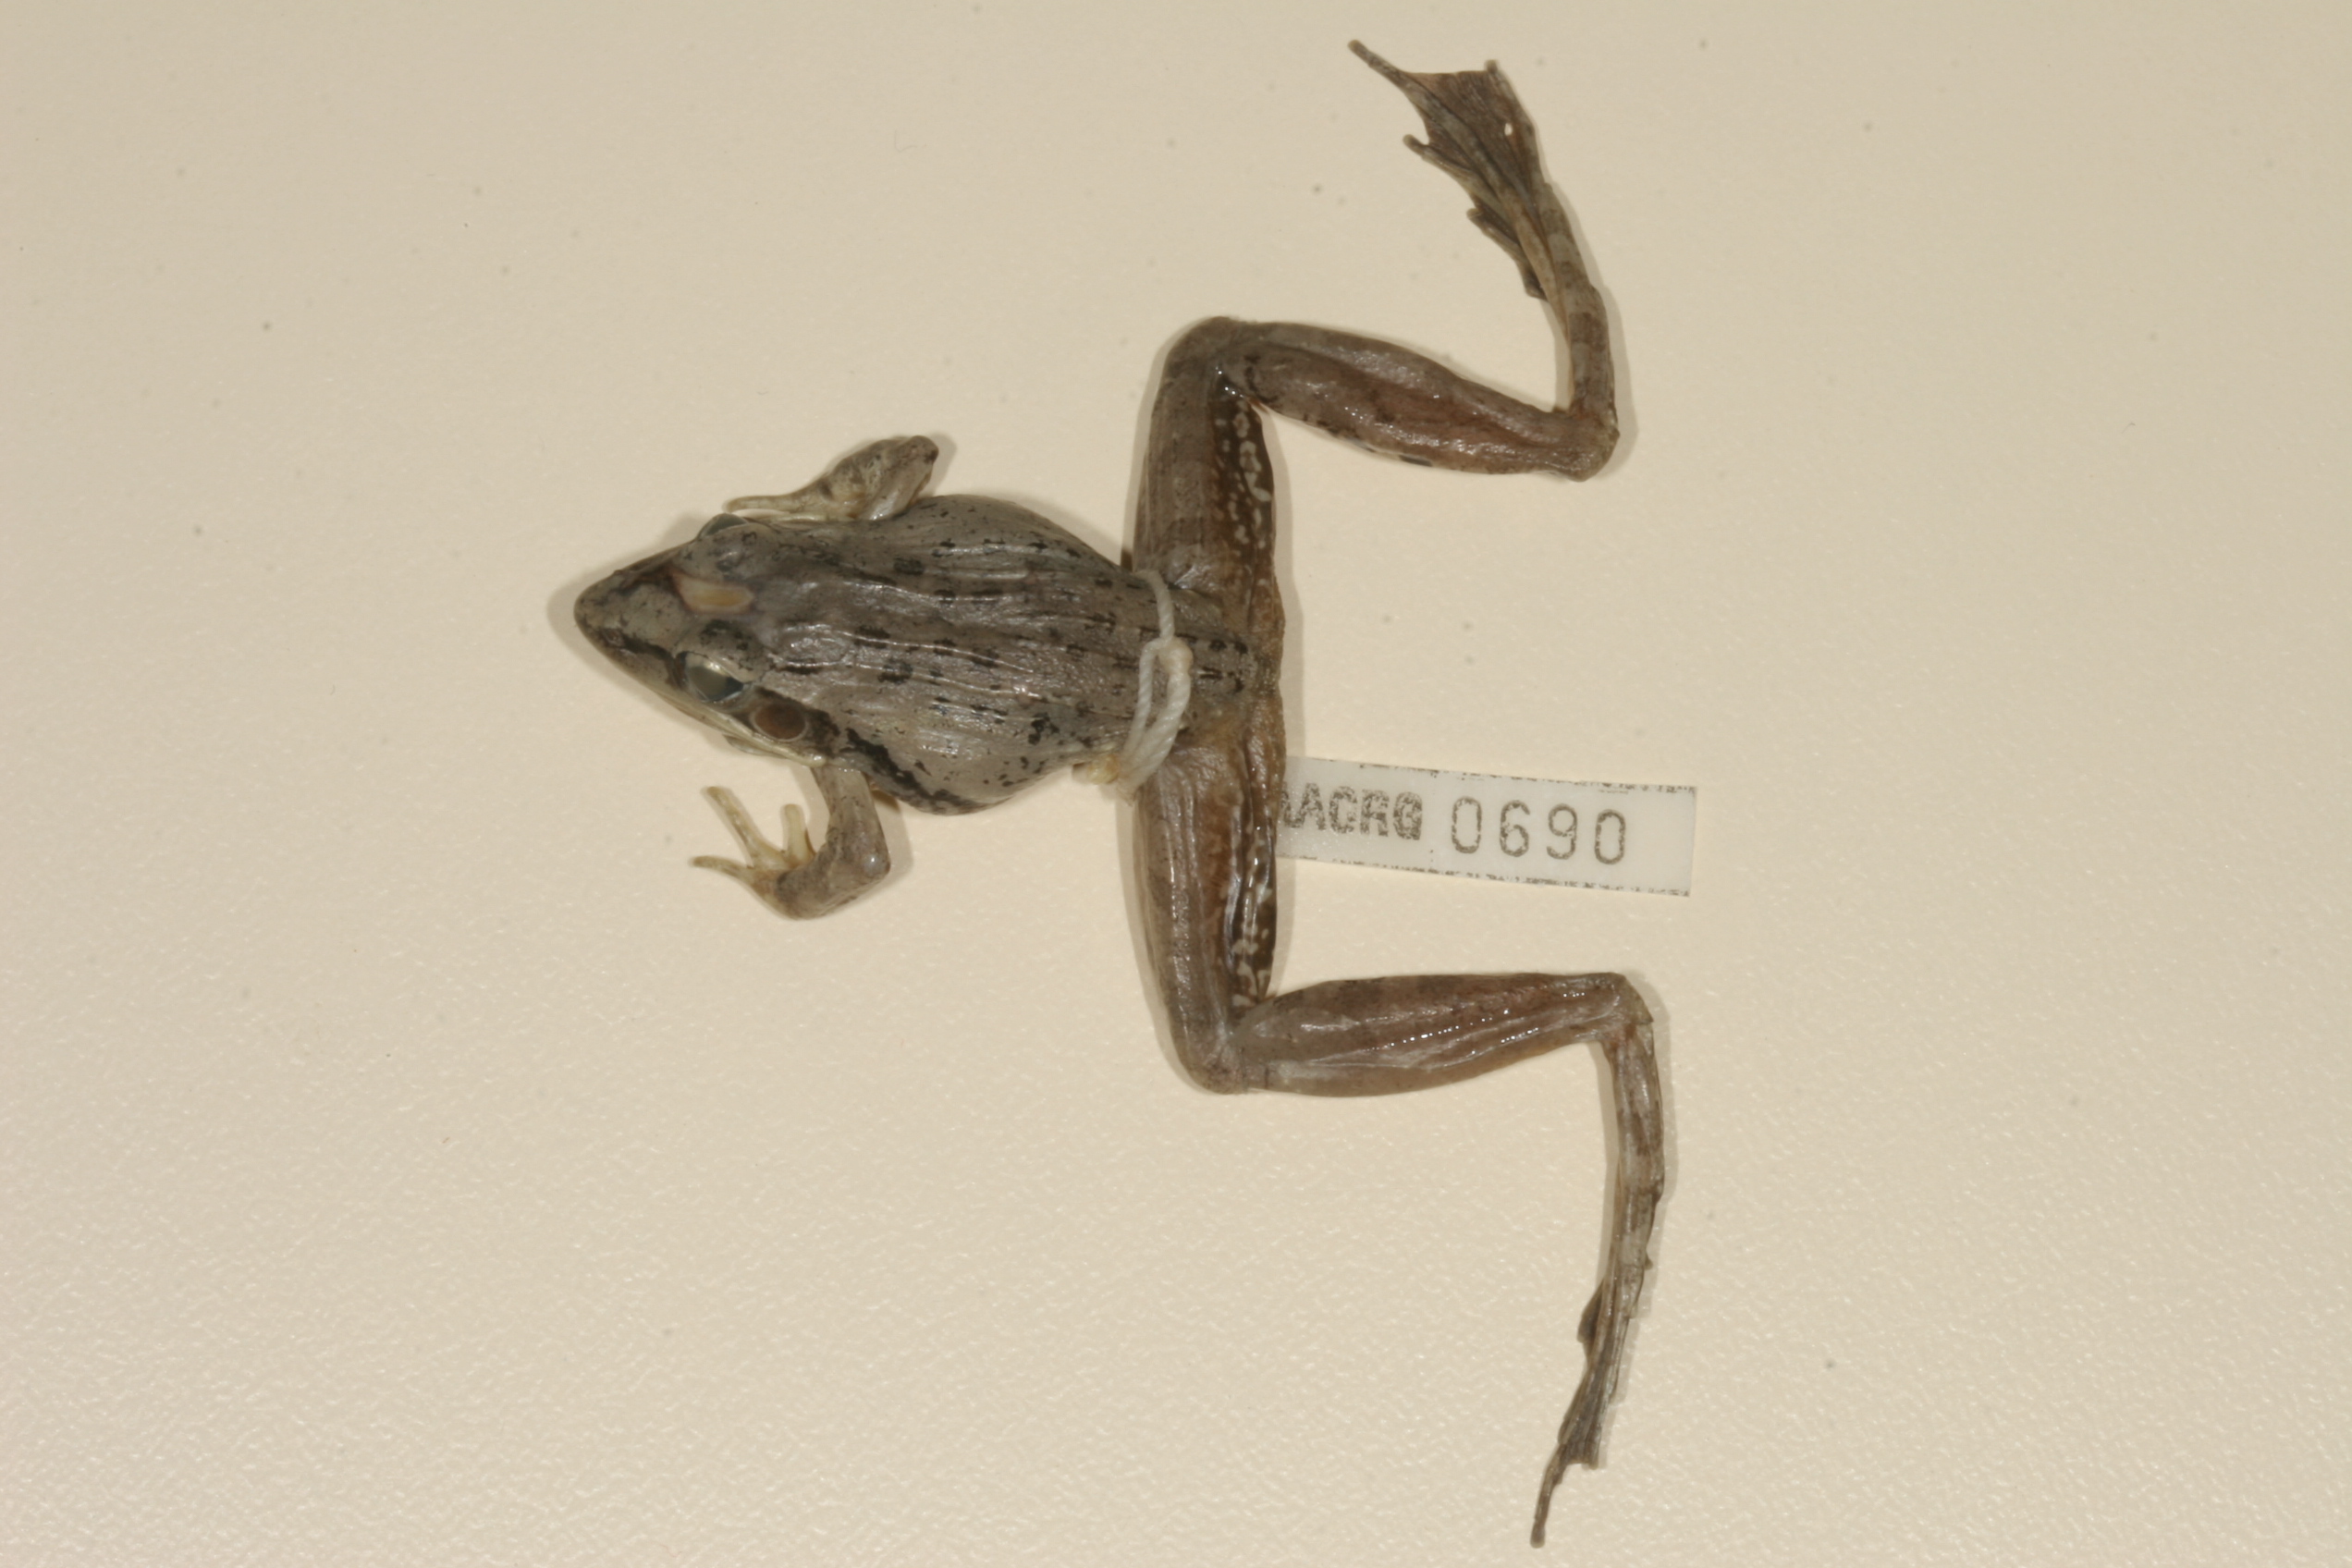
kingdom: Animalia
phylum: Chordata
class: Amphibia
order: Anura
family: Ptychadenidae
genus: Ptychadena
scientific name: Ptychadena anchietae
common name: Anchieta's ridged frog
